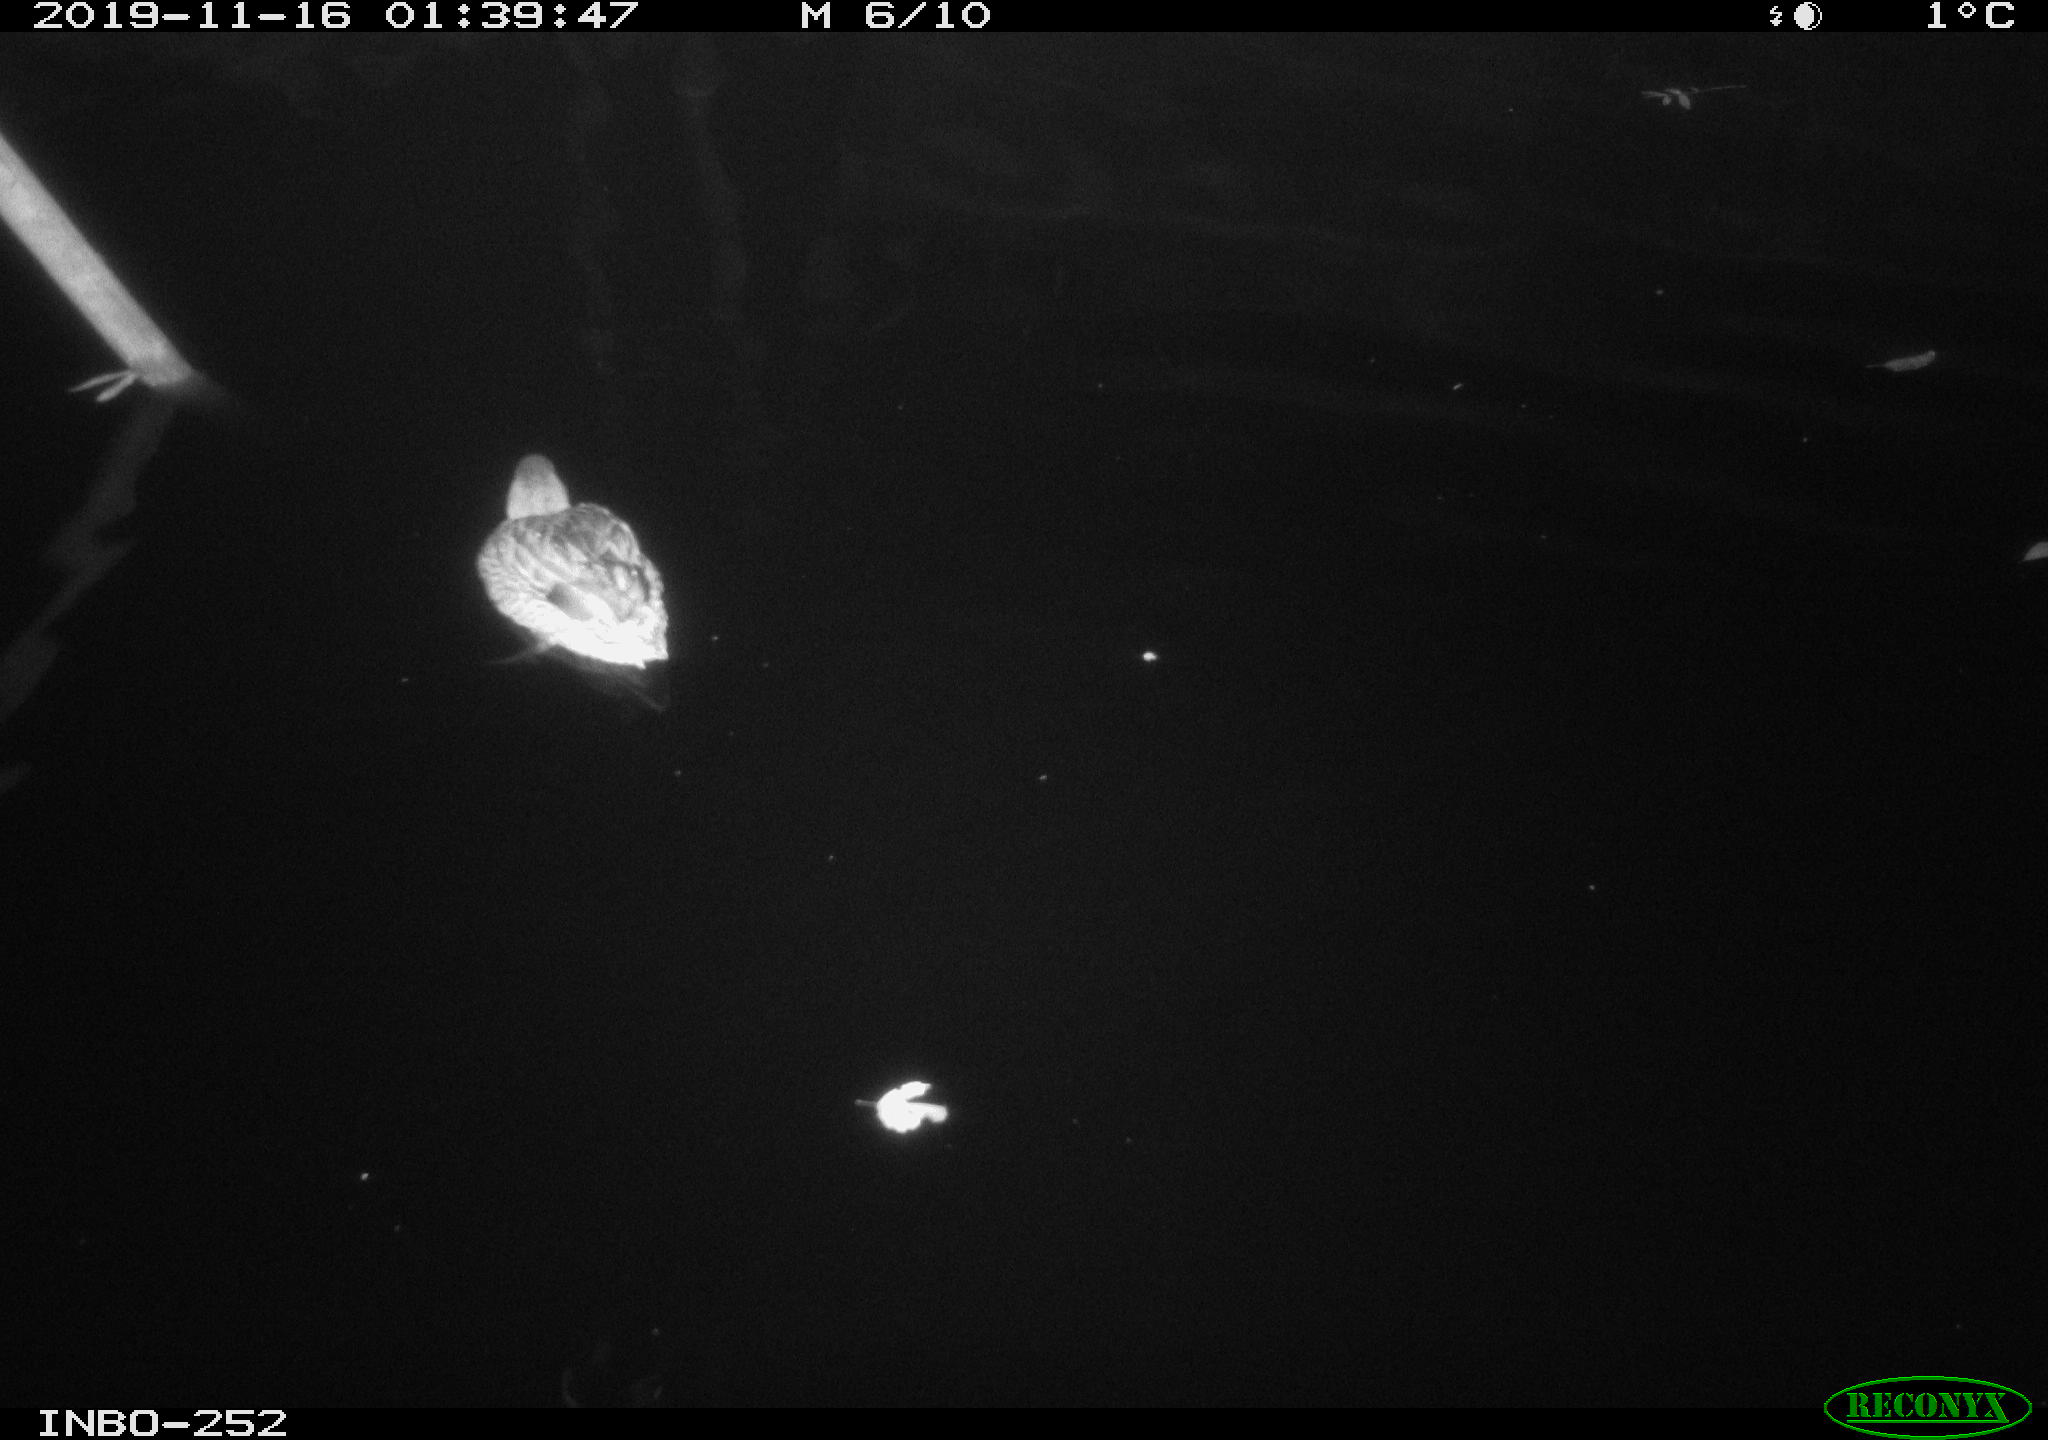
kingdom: Animalia
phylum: Chordata
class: Aves
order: Anseriformes
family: Anatidae
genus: Anas
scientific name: Anas platyrhynchos
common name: Mallard
